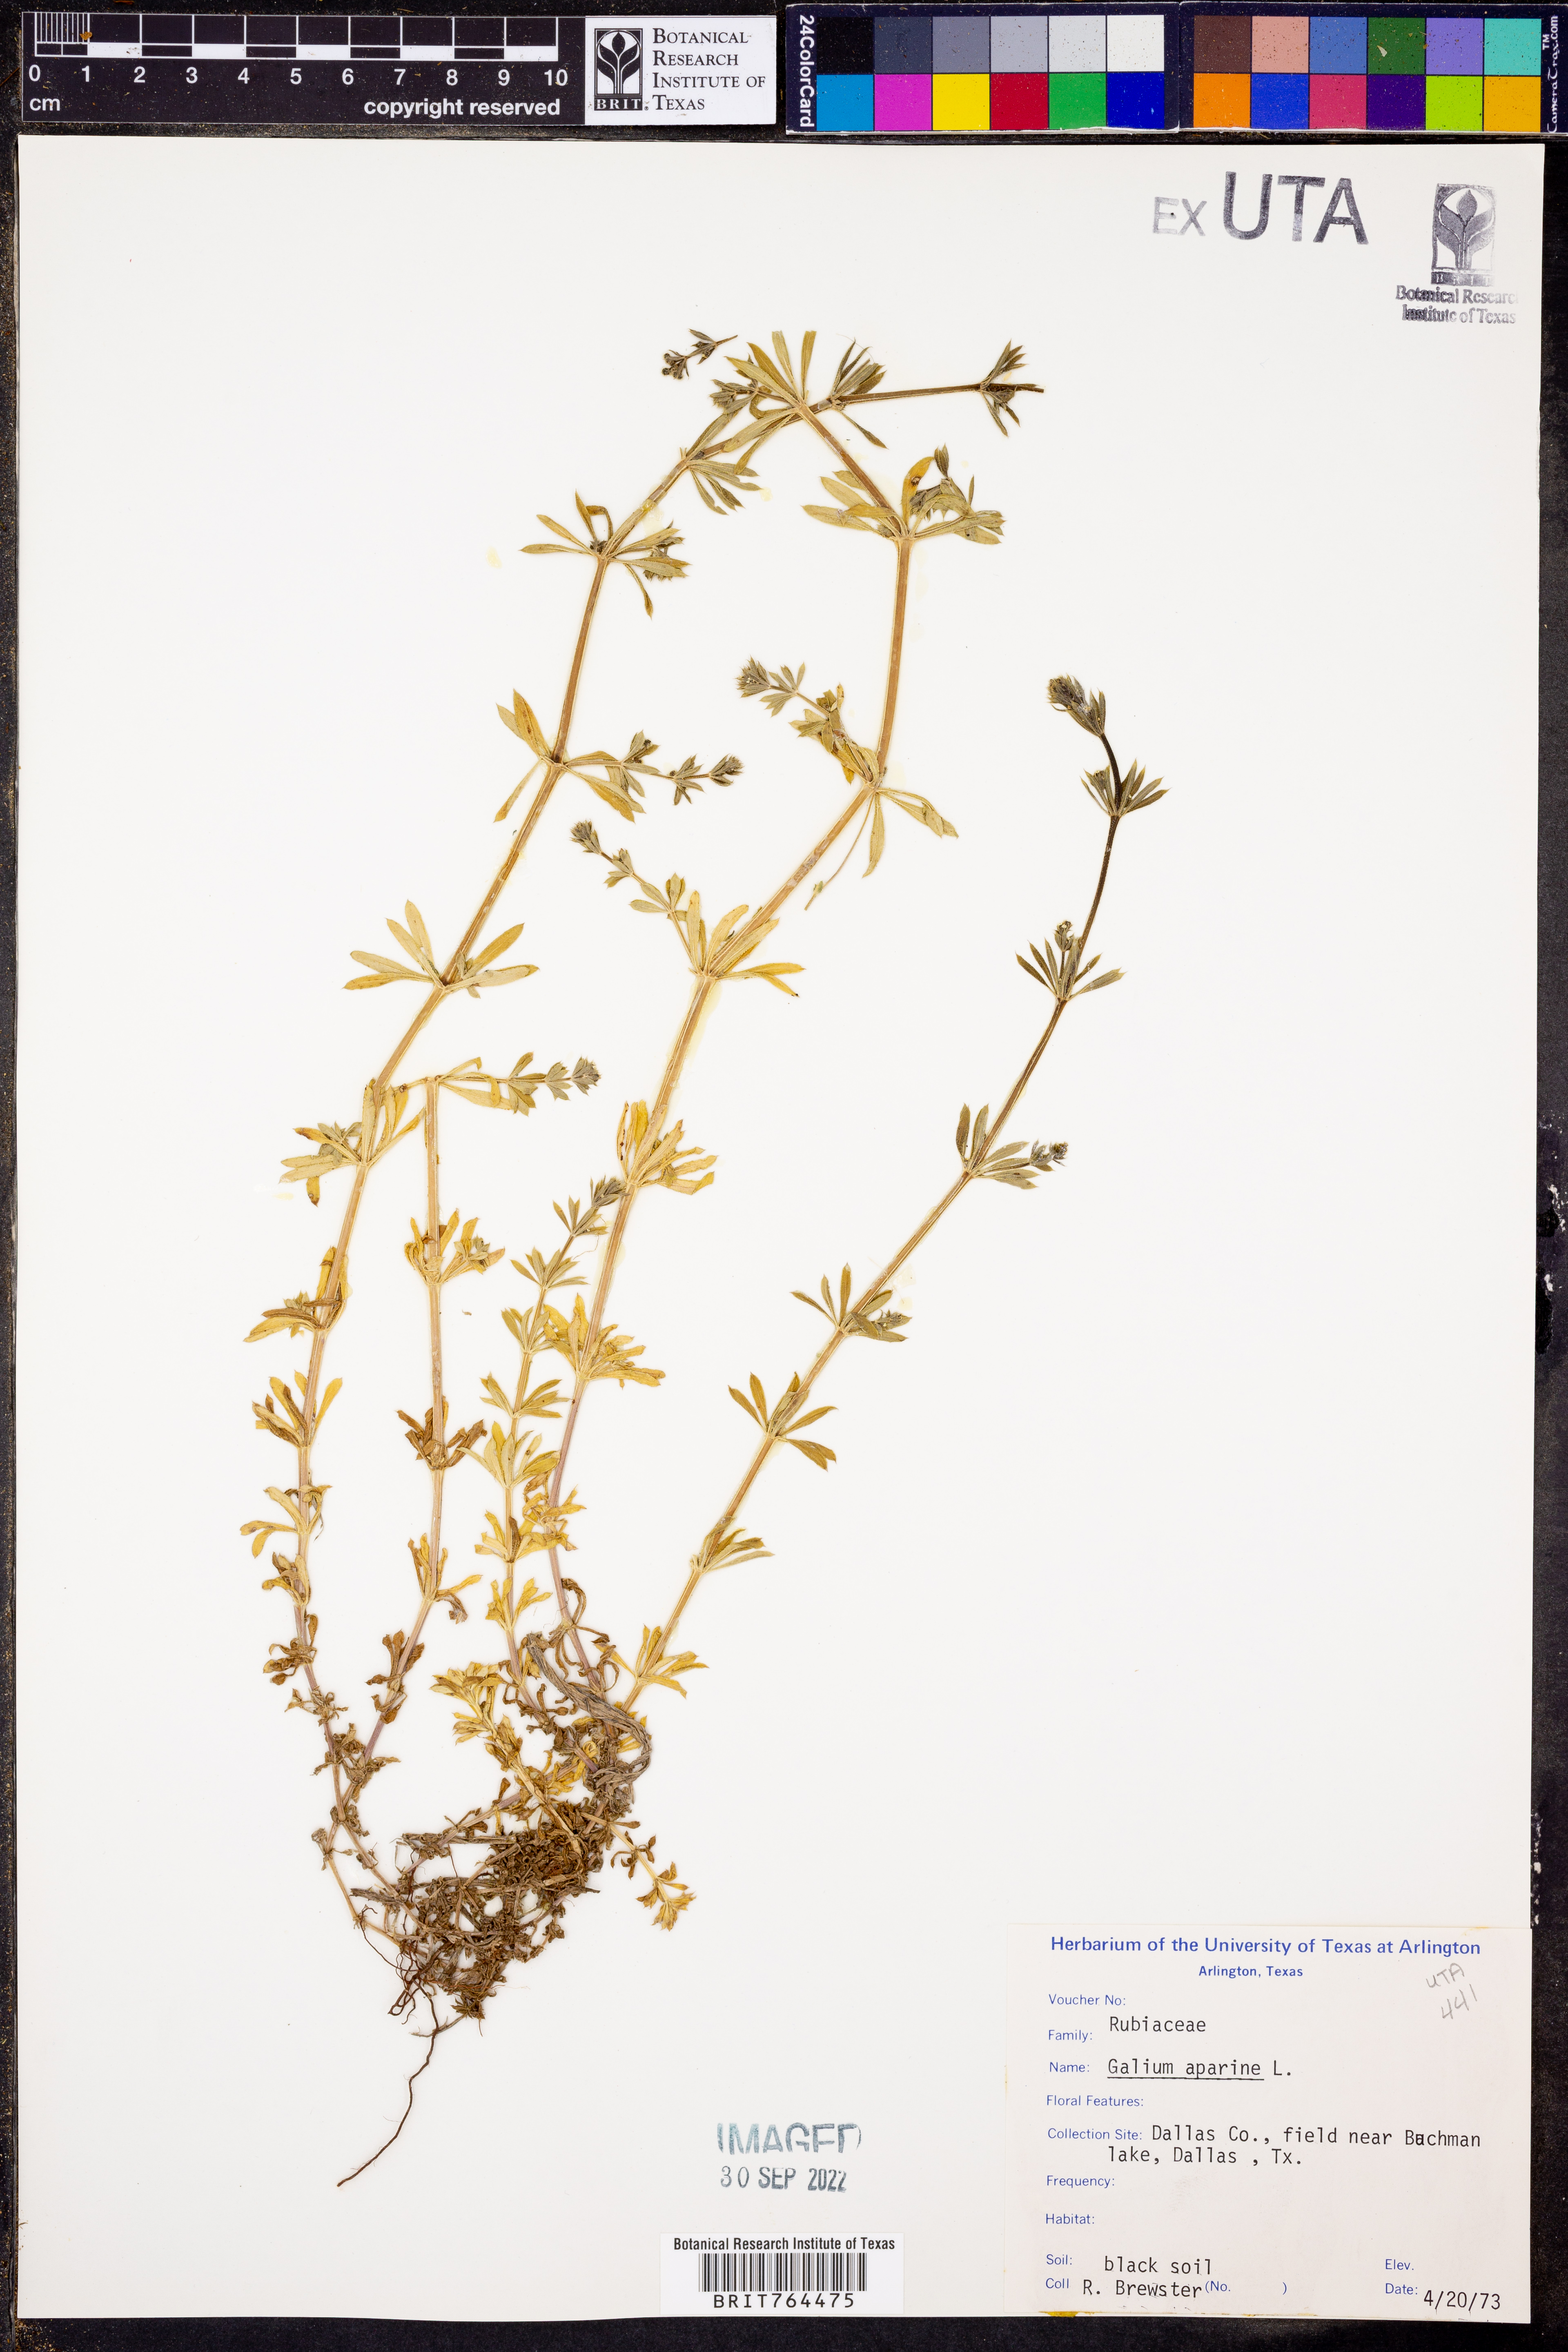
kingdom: Plantae
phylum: Tracheophyta
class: Magnoliopsida
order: Gentianales
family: Rubiaceae
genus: Galium
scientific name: Galium aparine
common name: Cleavers
